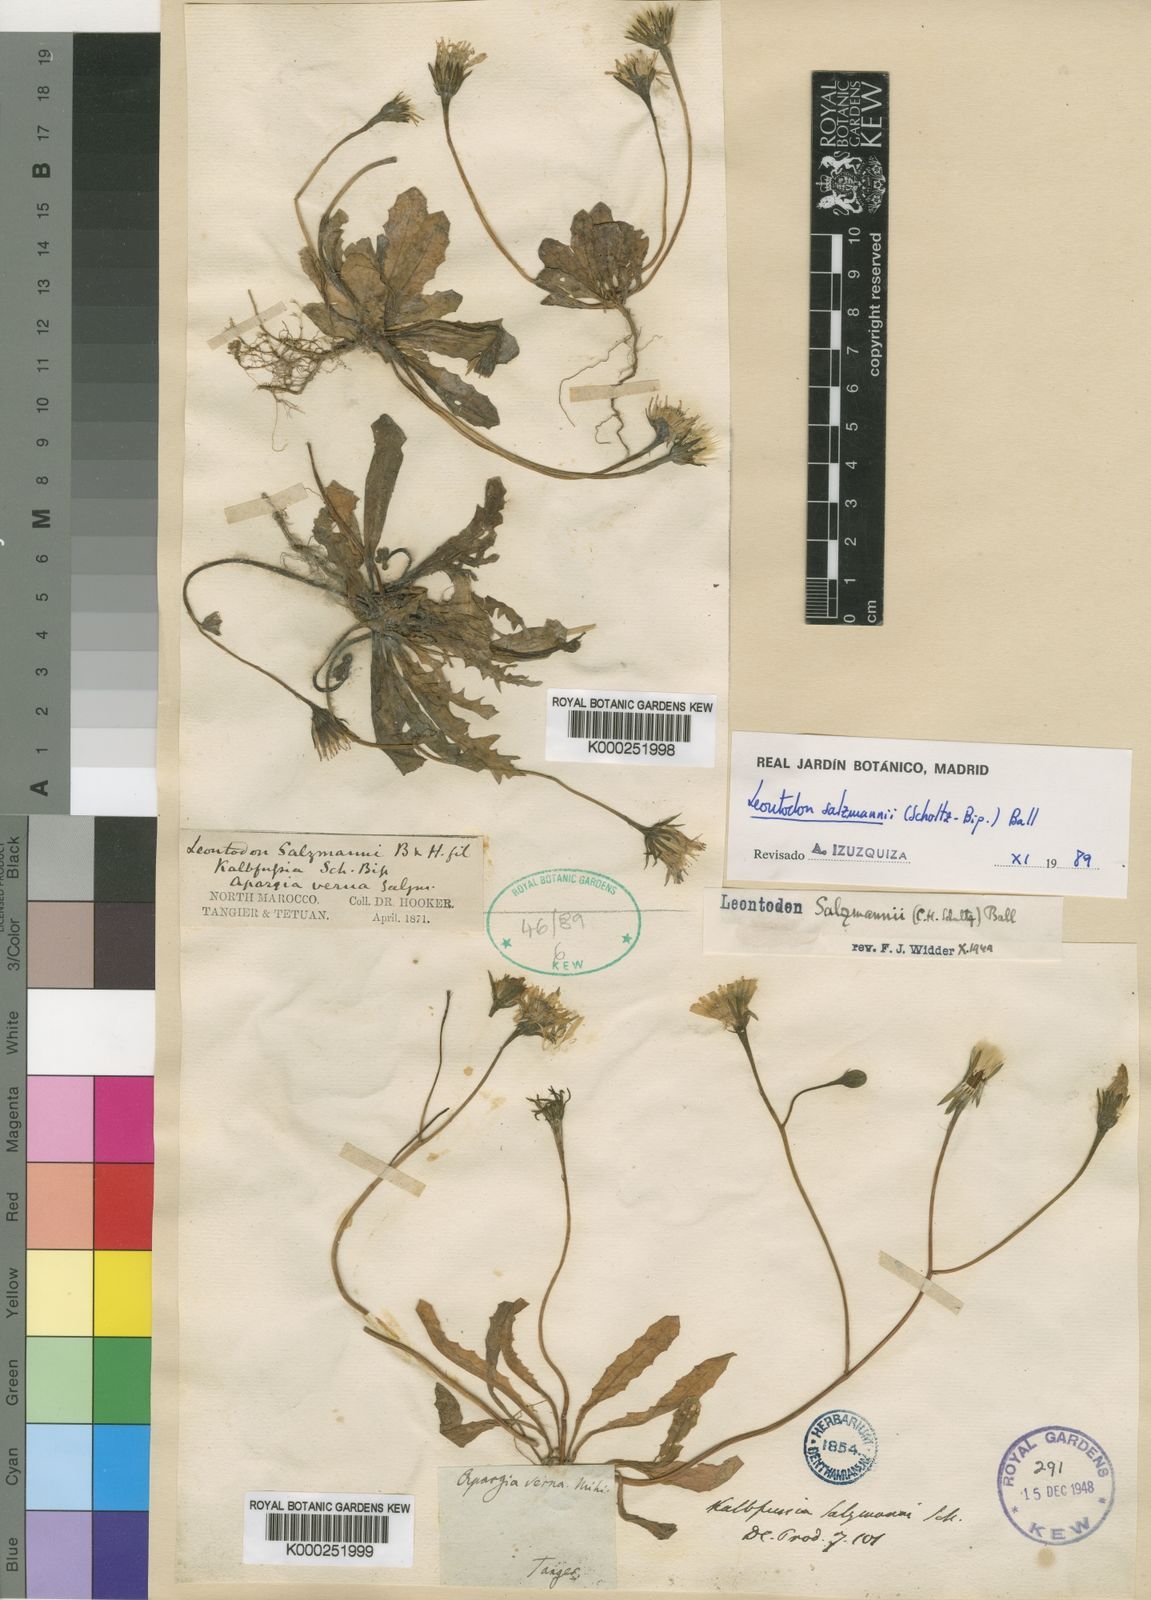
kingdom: Plantae
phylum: Tracheophyta
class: Magnoliopsida
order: Asterales
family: Asteraceae
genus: Scorzoneroides
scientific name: Scorzoneroides salzmannii
